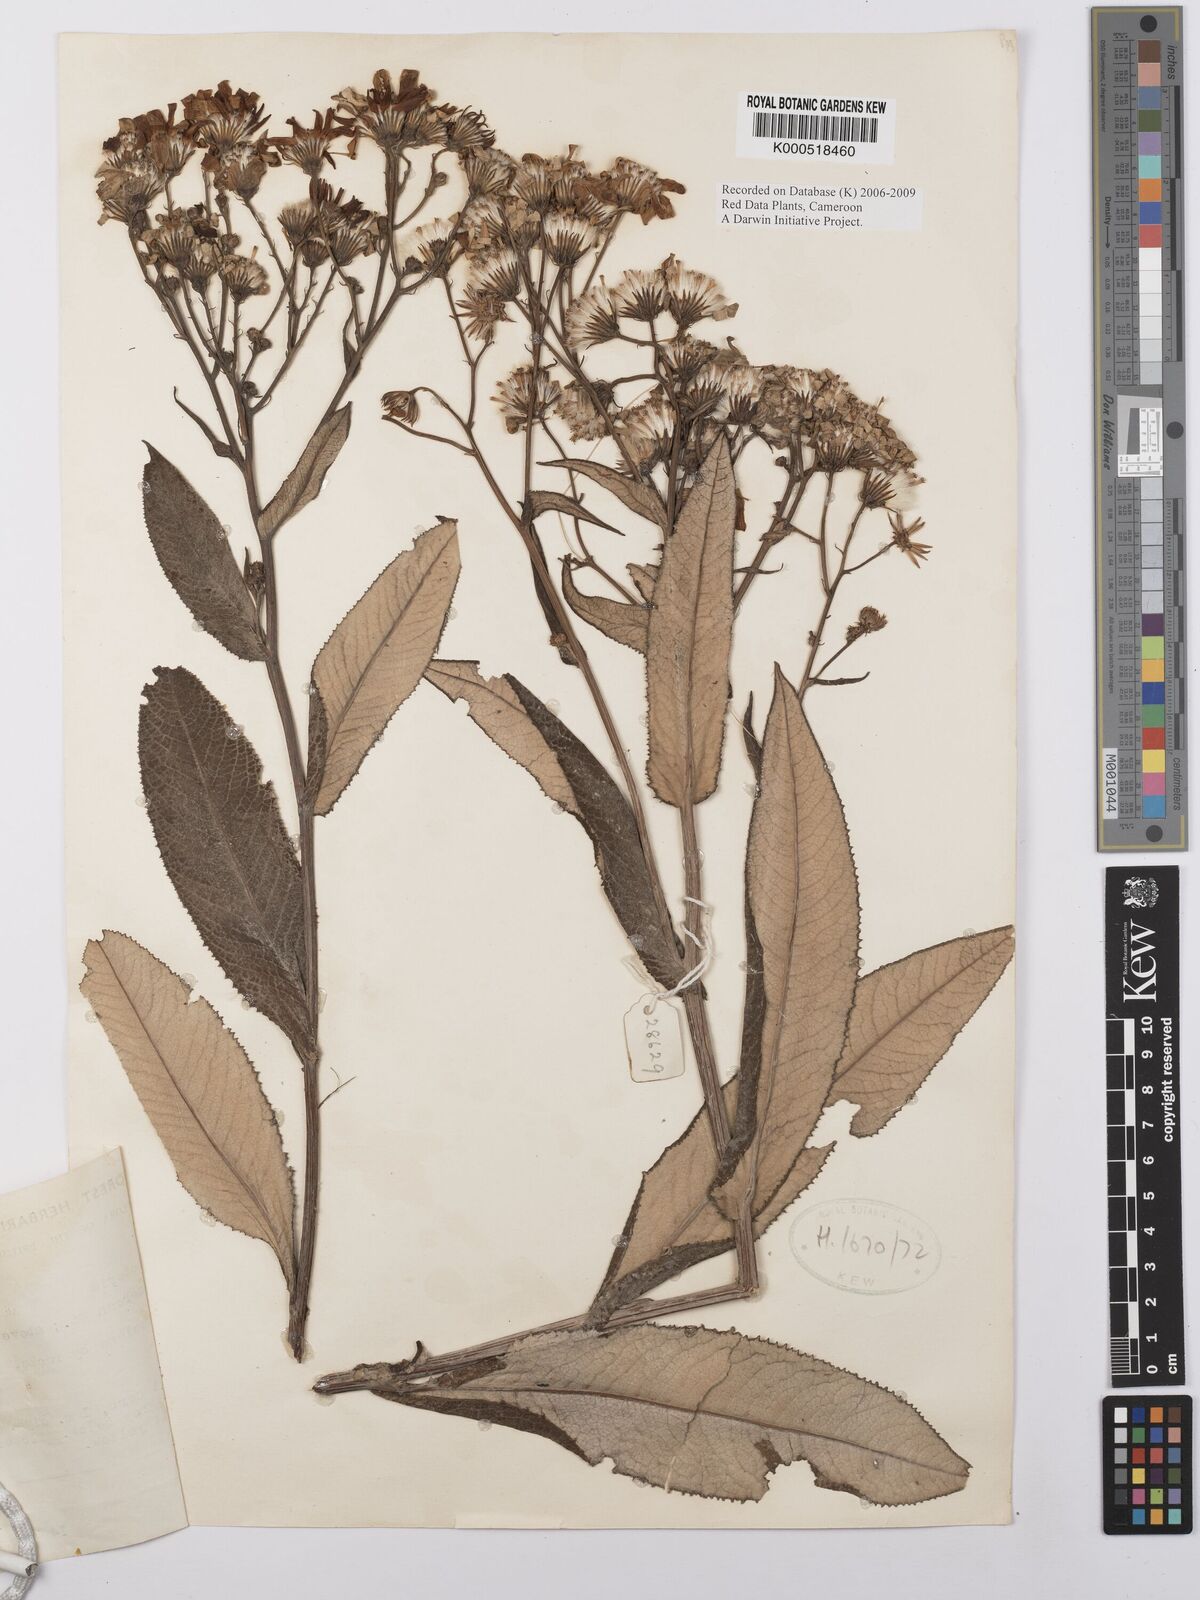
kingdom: Plantae
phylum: Tracheophyta
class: Magnoliopsida
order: Asterales
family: Asteraceae
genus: Senecio
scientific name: Senecio burtonii
